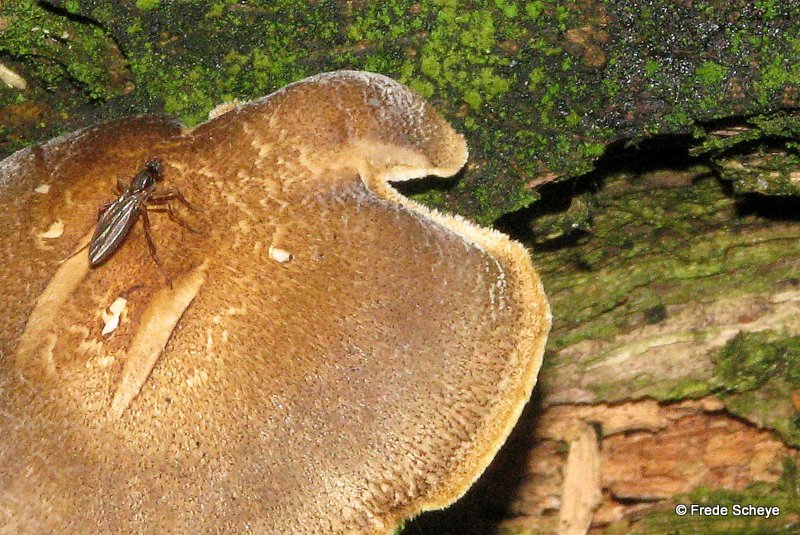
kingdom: Fungi
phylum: Basidiomycota
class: Agaricomycetes
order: Polyporales
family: Polyporaceae
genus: Lentinus
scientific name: Lentinus substrictus
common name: forårs-stilkporesvamp
